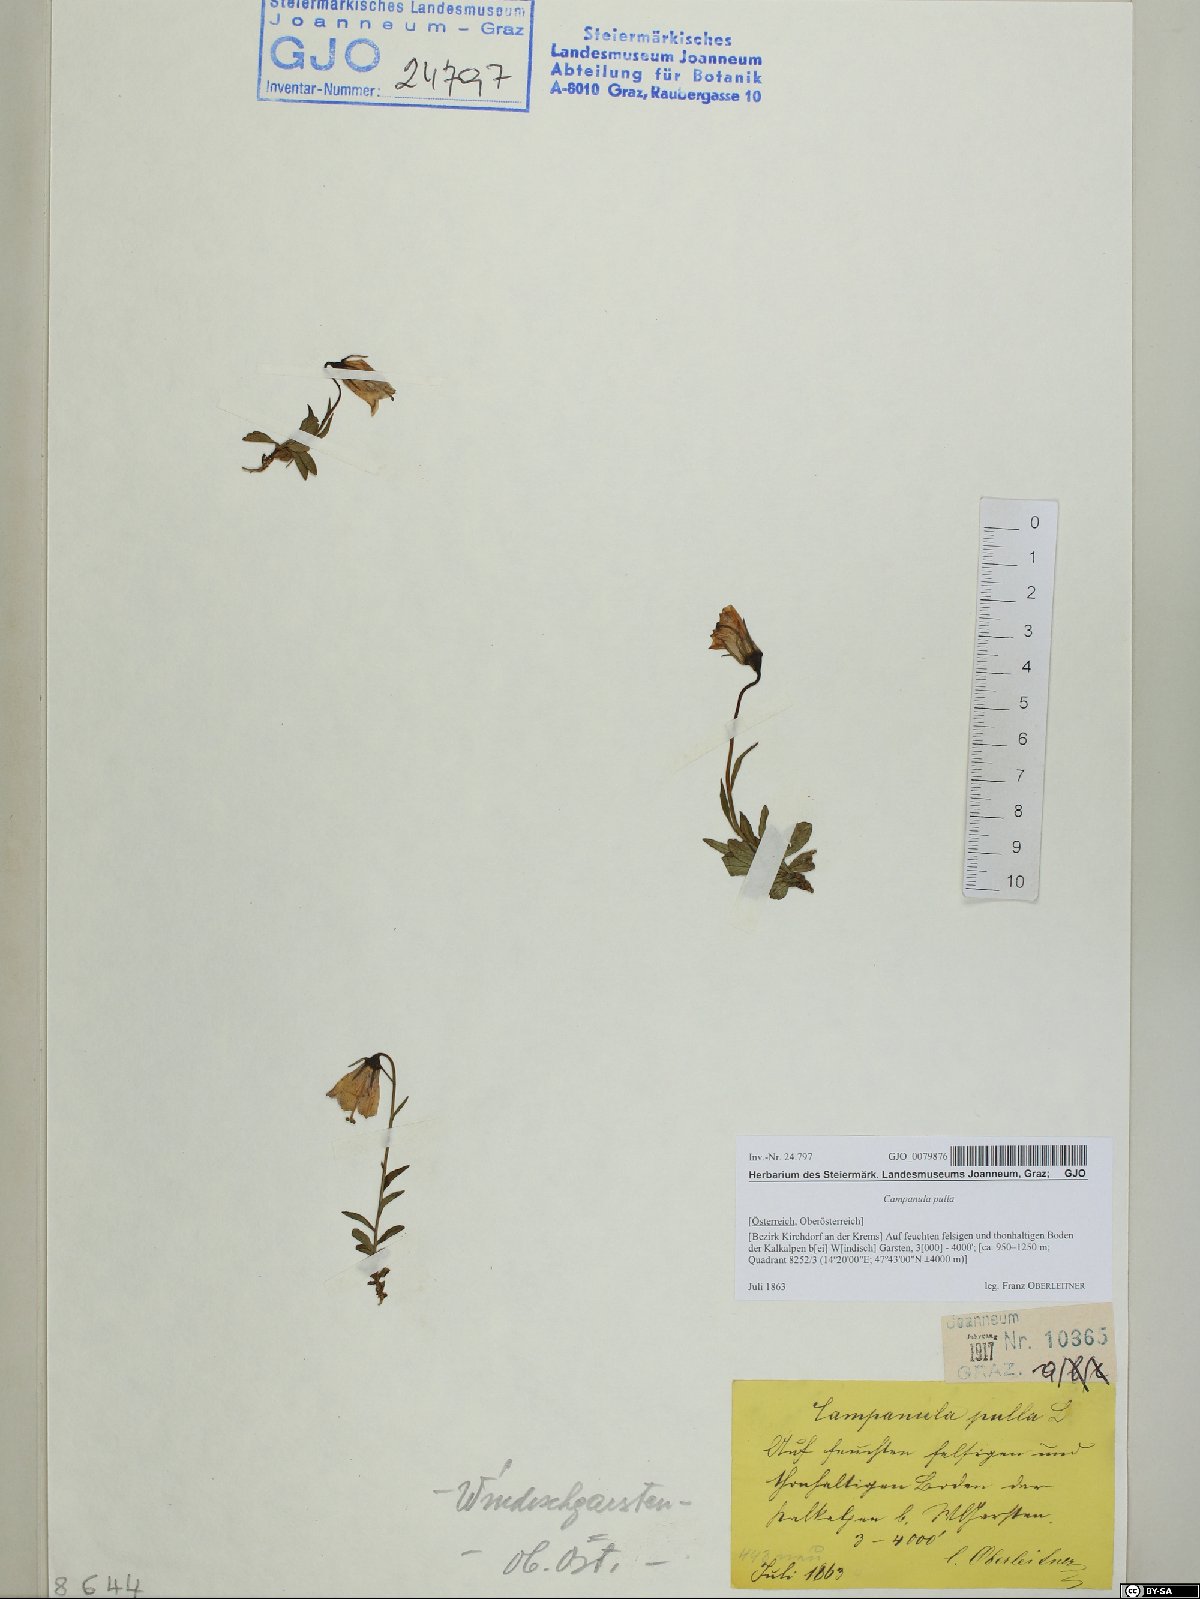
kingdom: Plantae
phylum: Tracheophyta
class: Magnoliopsida
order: Asterales
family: Campanulaceae
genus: Campanula
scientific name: Campanula pulla
